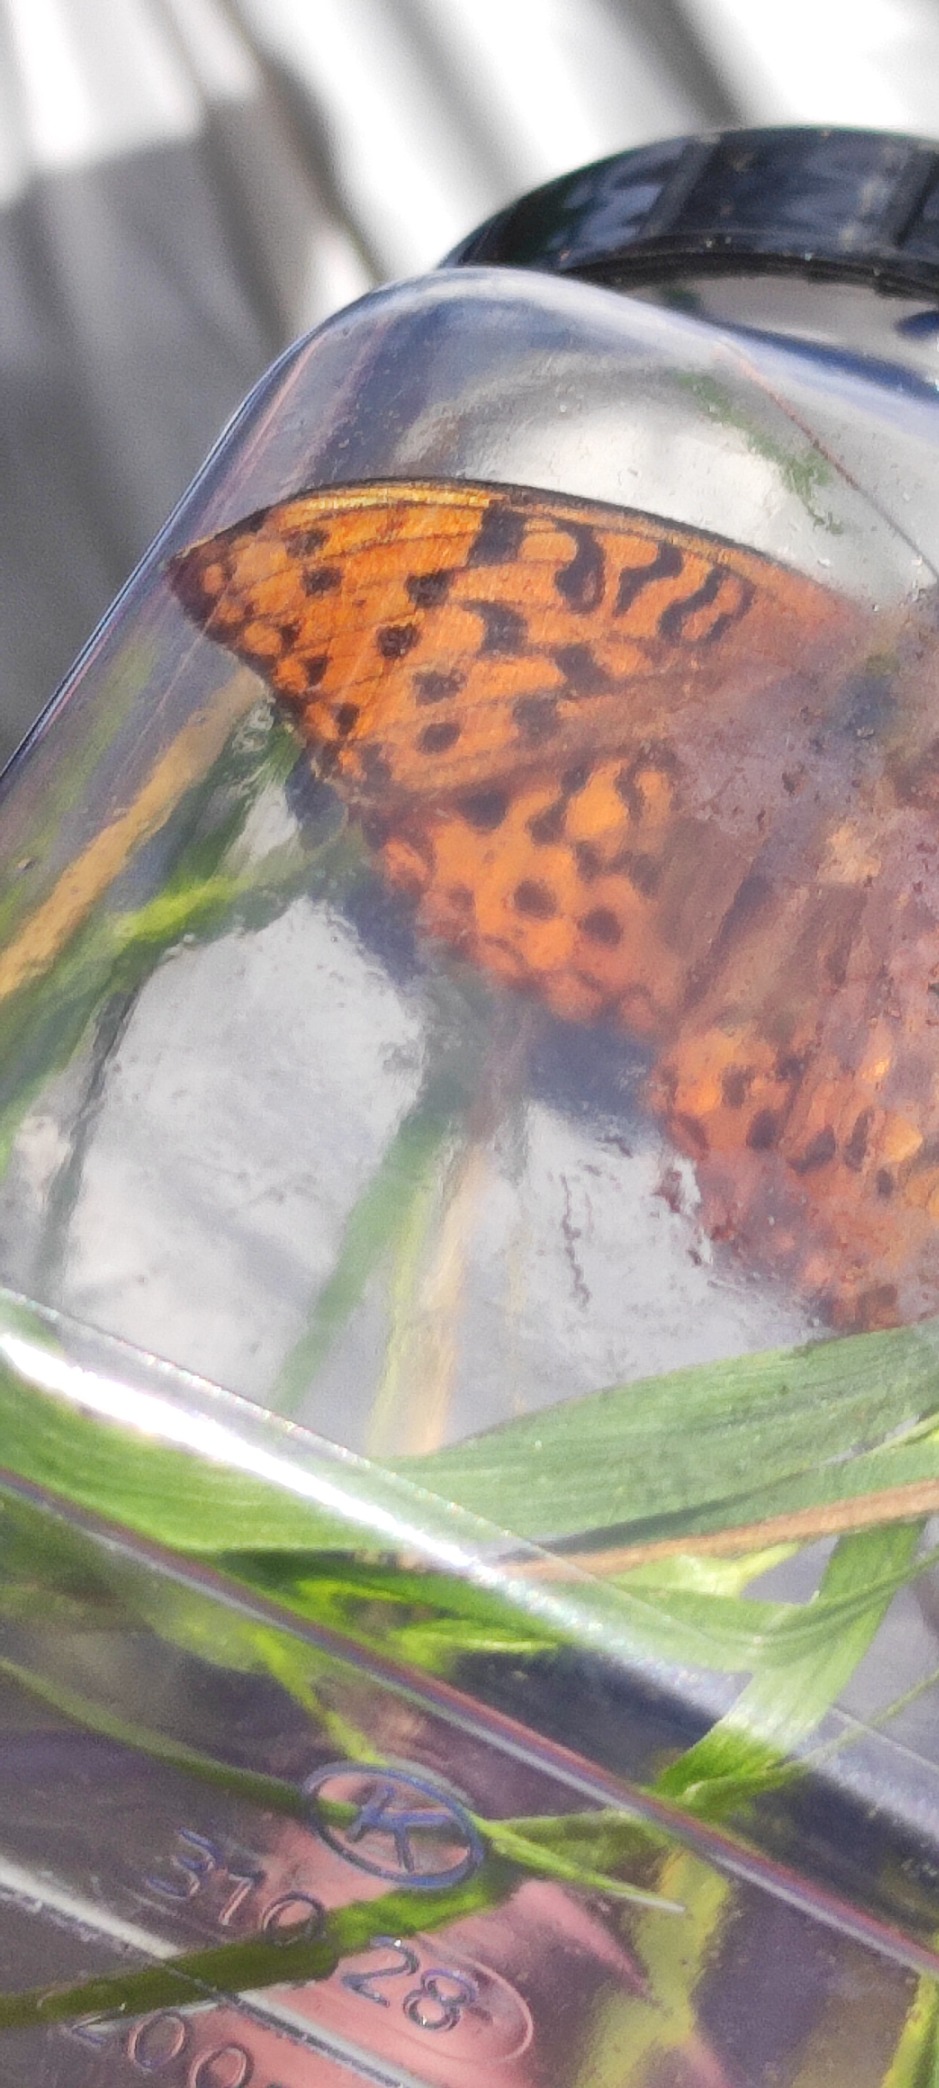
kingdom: Animalia
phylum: Arthropoda
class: Insecta
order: Lepidoptera
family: Nymphalidae
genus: Fabriciana
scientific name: Fabriciana adippe
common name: Skovperlemorsommerfugl
